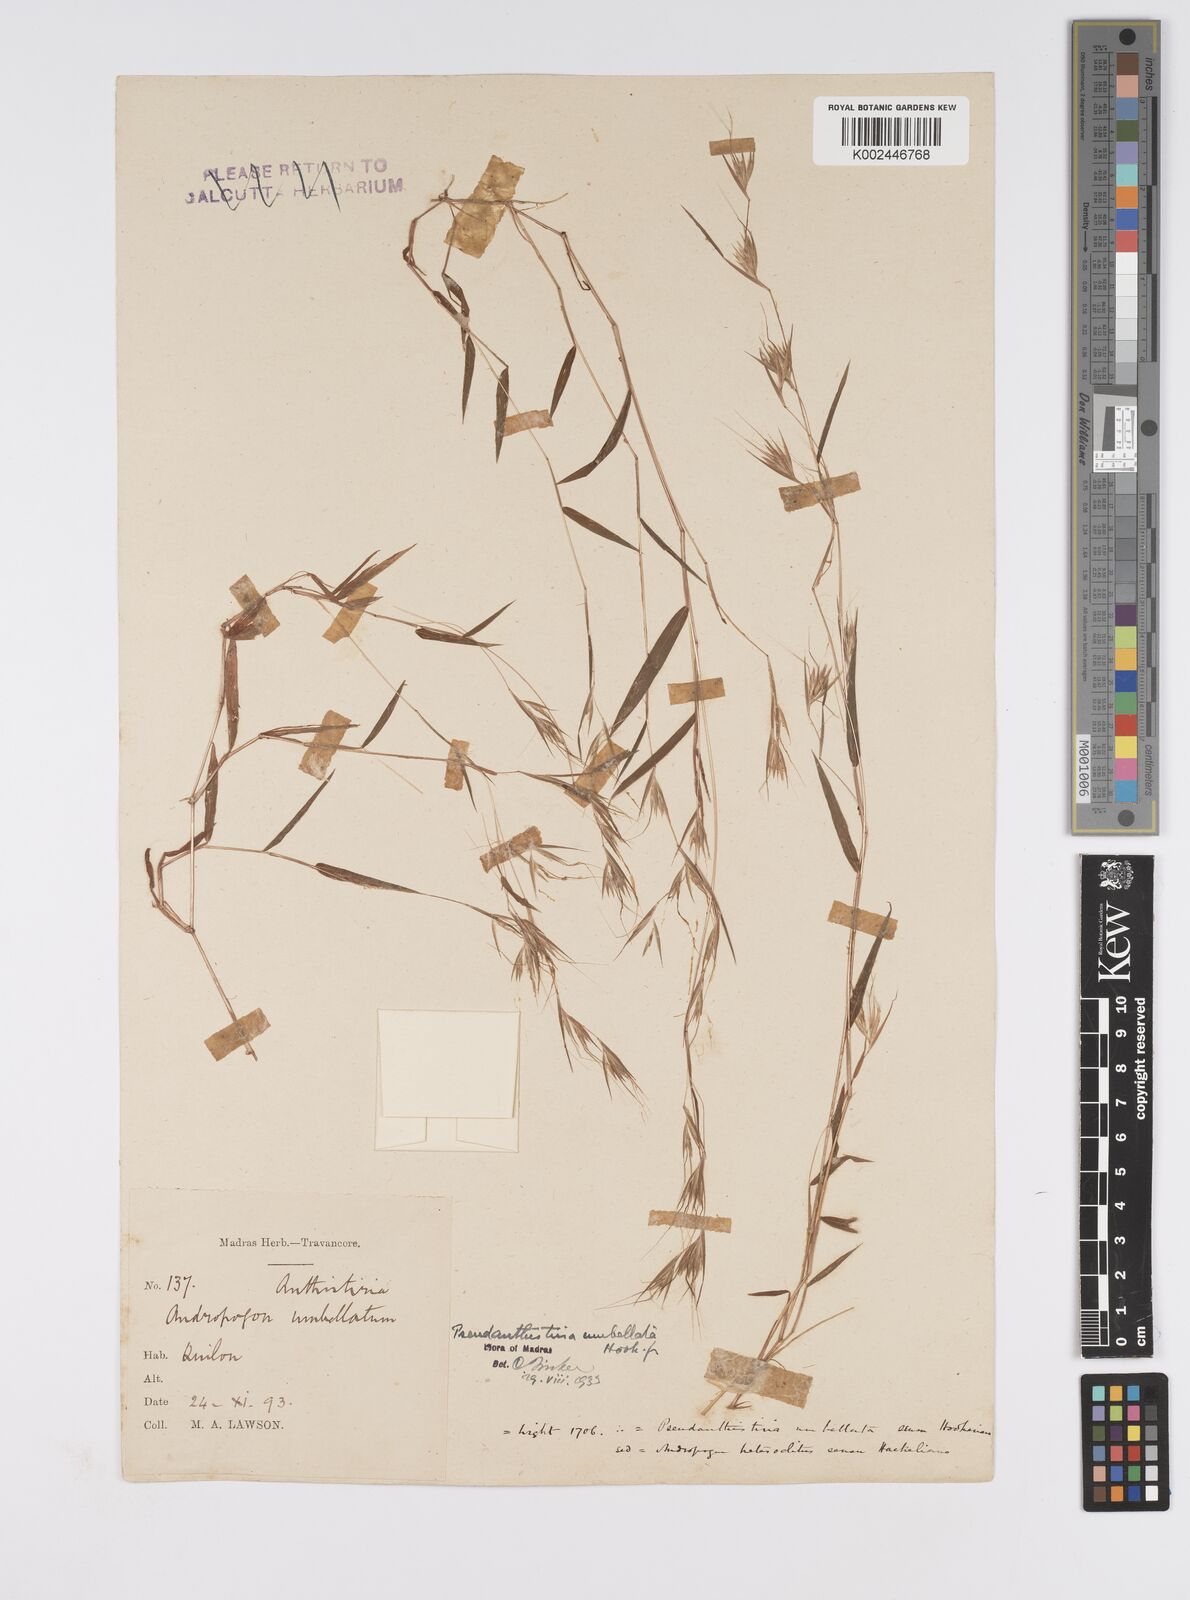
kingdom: Plantae
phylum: Tracheophyta
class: Liliopsida
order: Poales
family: Poaceae
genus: Pseudanthistiria
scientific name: Pseudanthistiria umbellata
